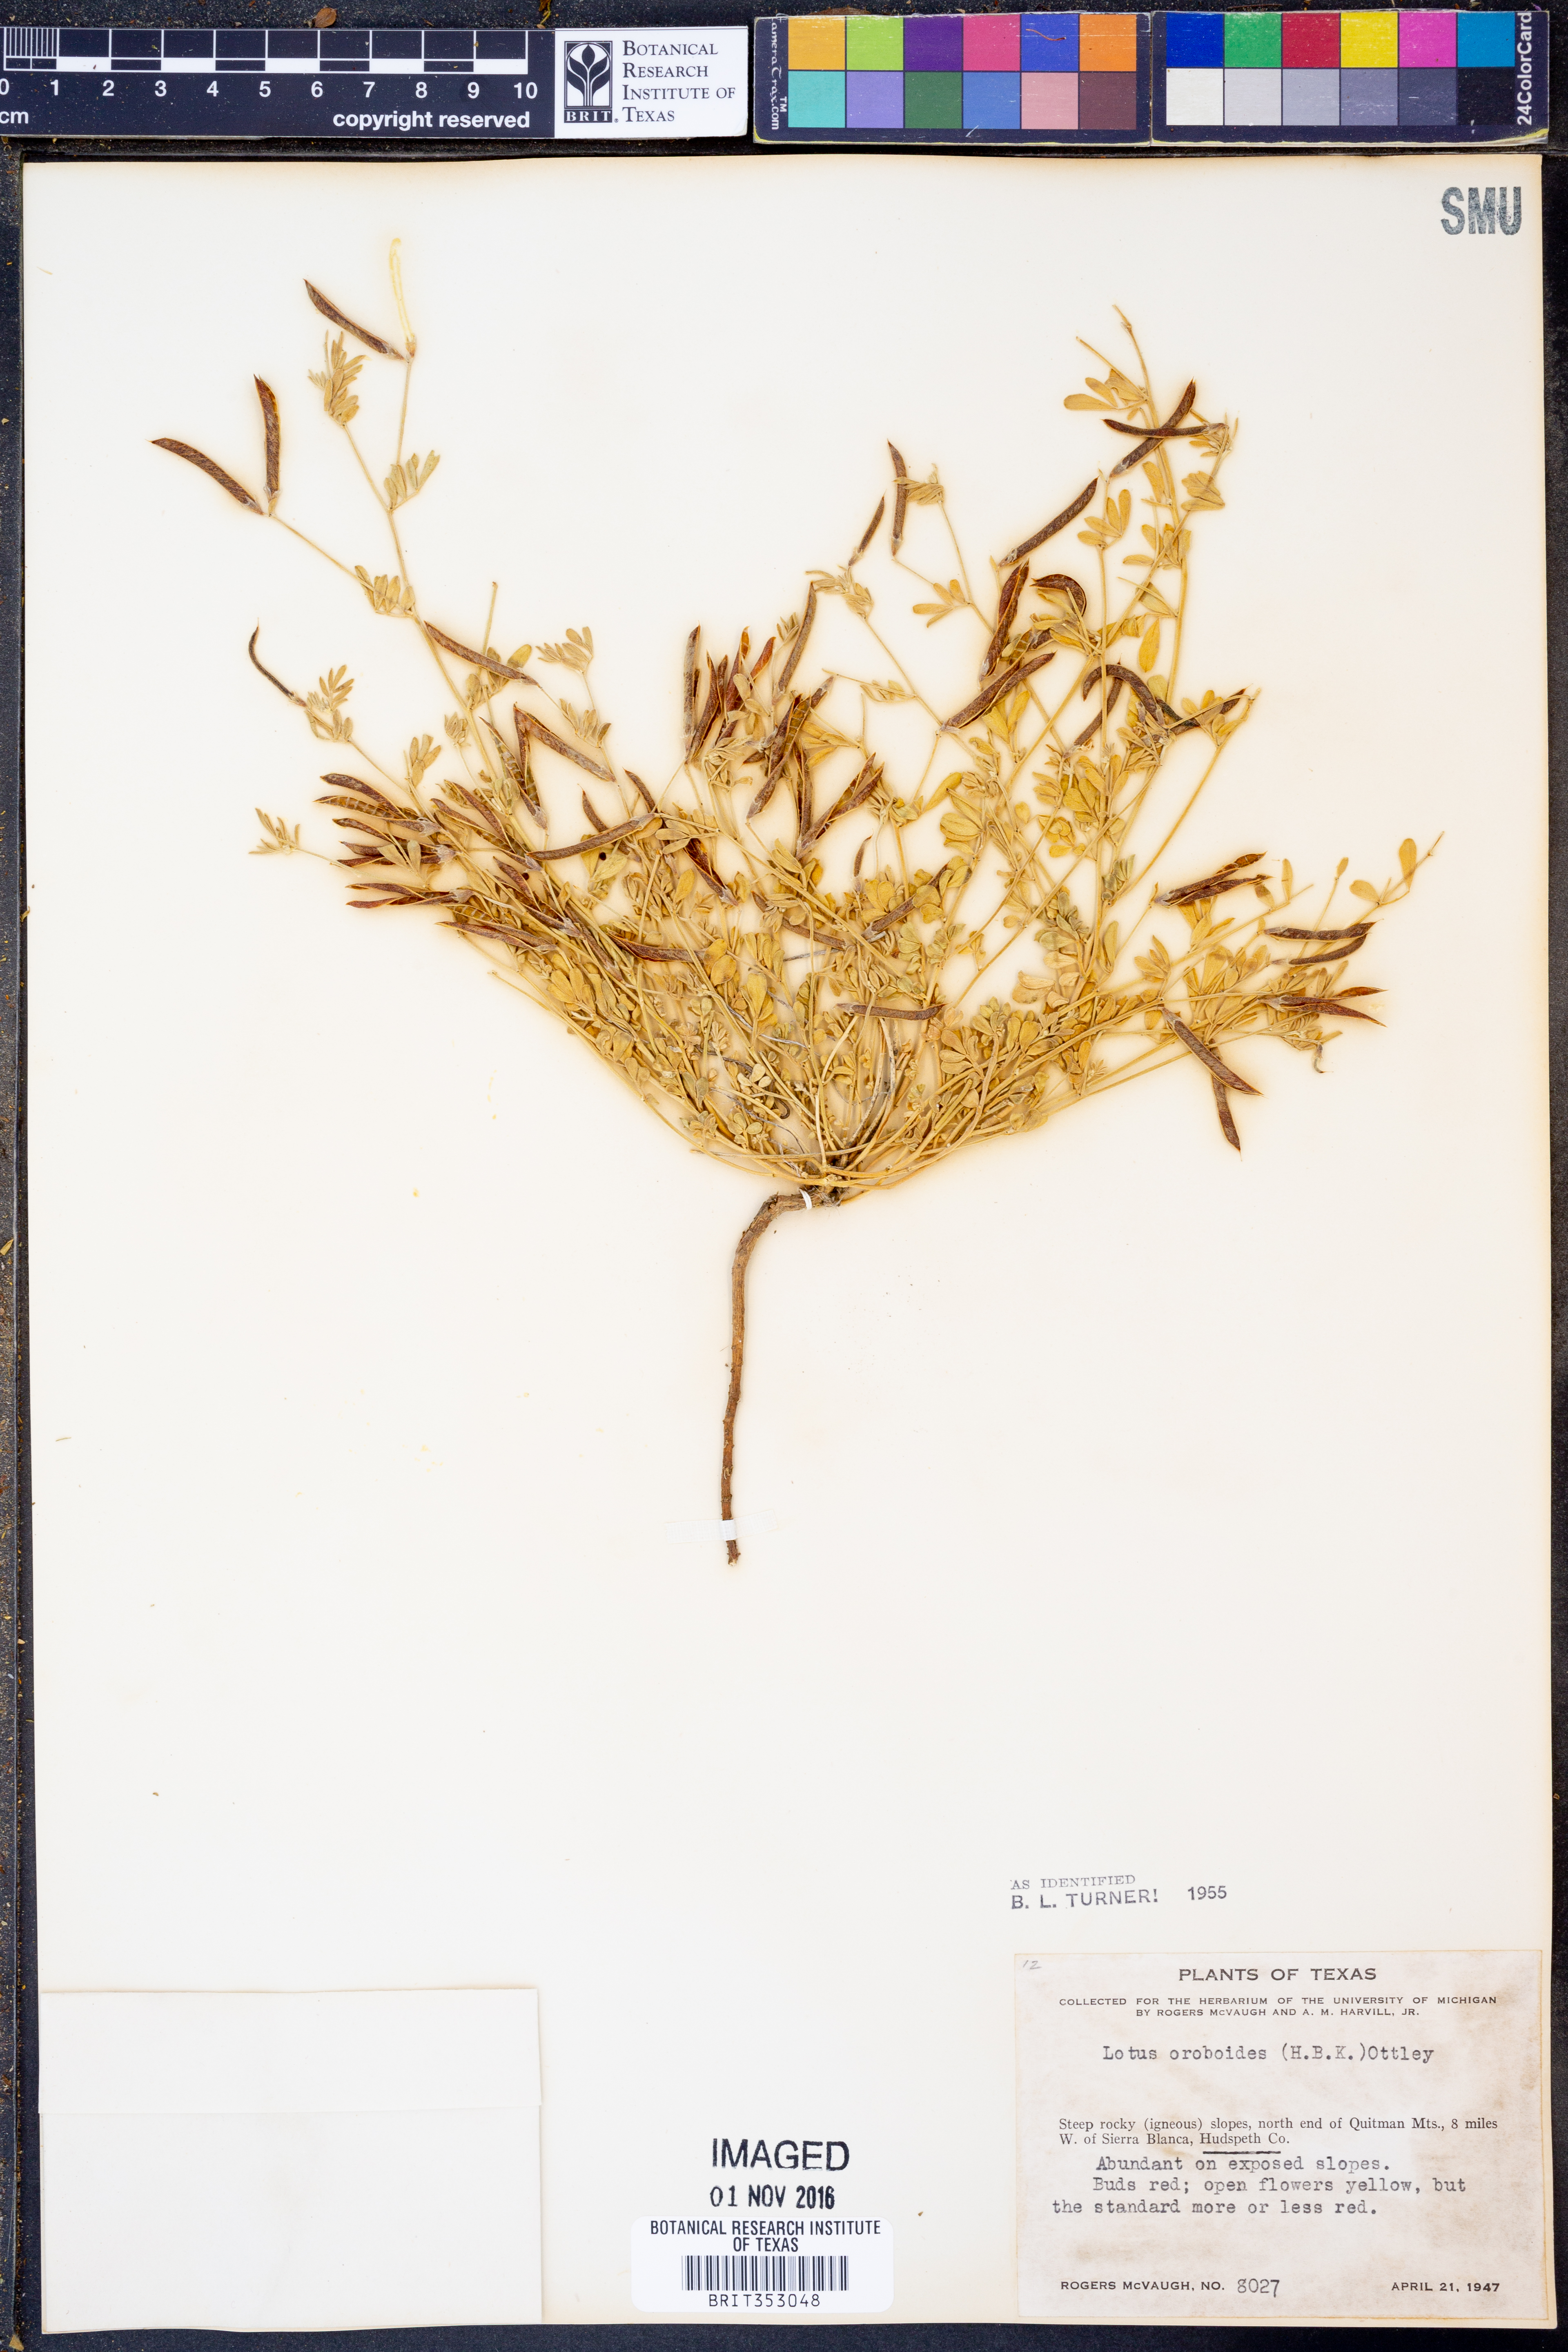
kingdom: Plantae
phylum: Tracheophyta
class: Magnoliopsida
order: Fabales
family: Fabaceae
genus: Acmispon
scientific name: Acmispon oroboides
